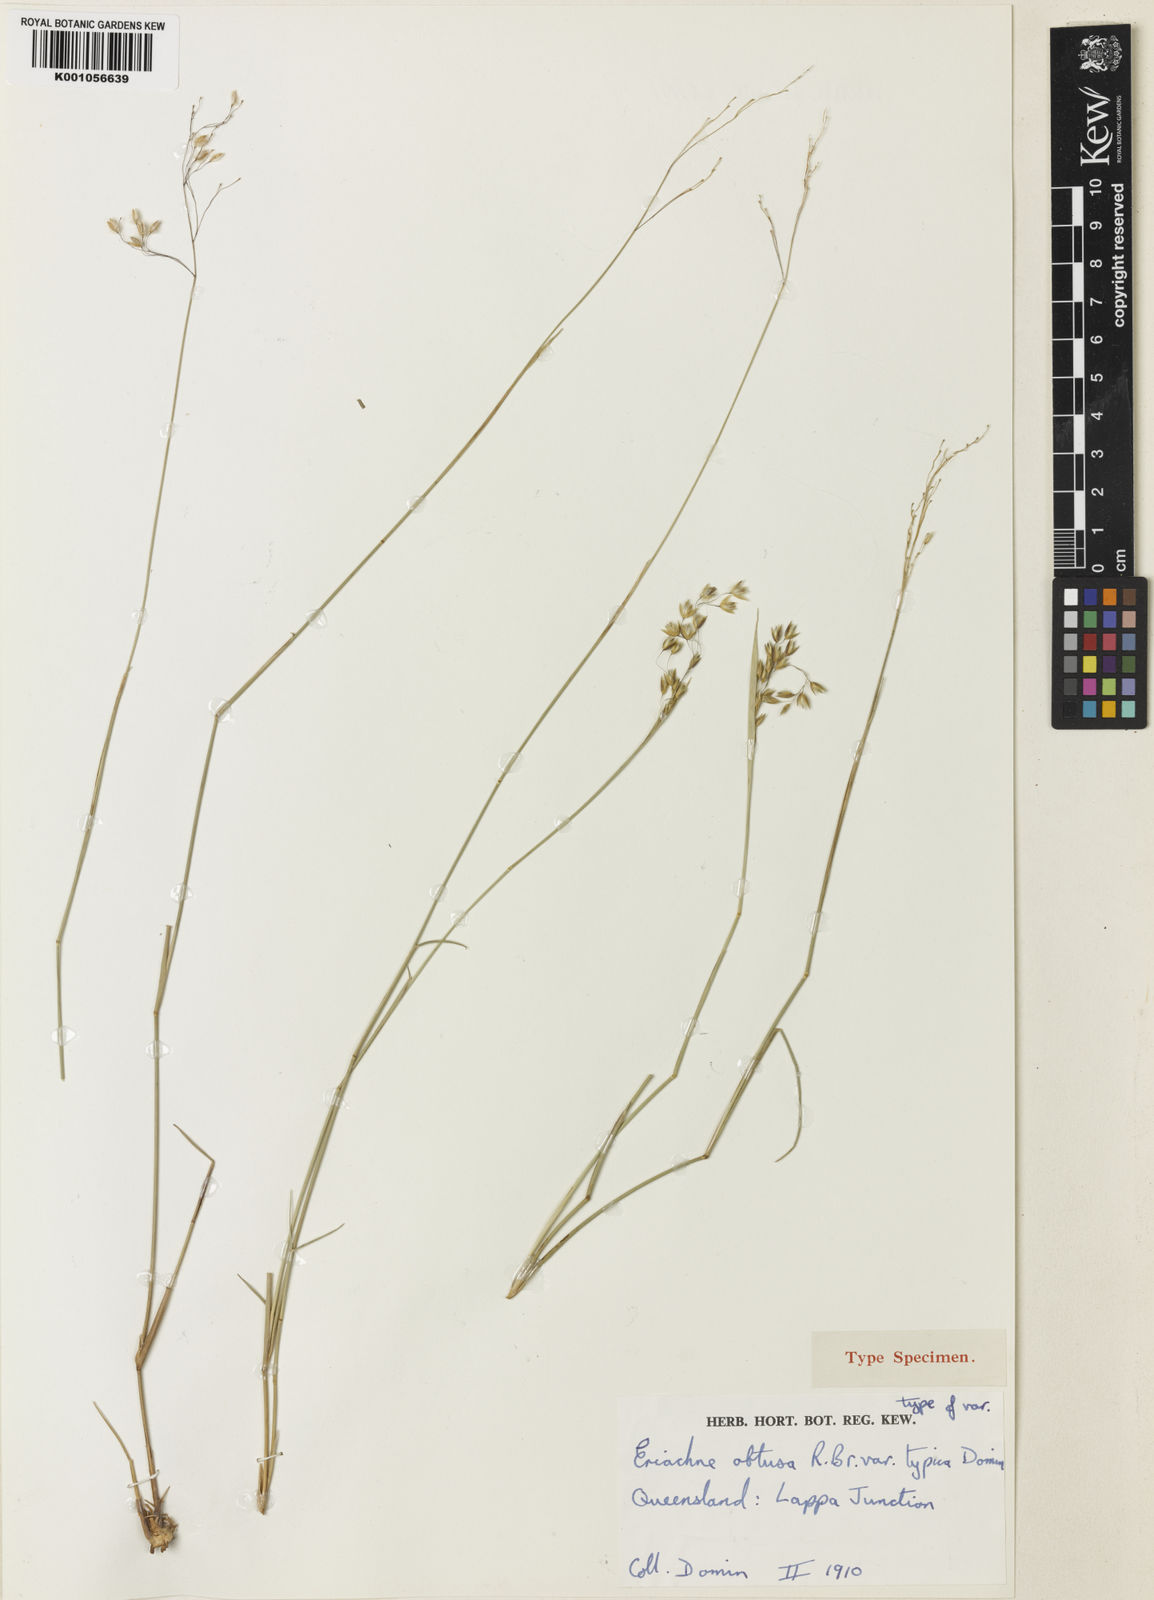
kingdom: Plantae
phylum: Tracheophyta
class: Liliopsida
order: Poales
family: Poaceae
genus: Eriachne
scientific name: Eriachne obtusa
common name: Northern wanderrie grass
